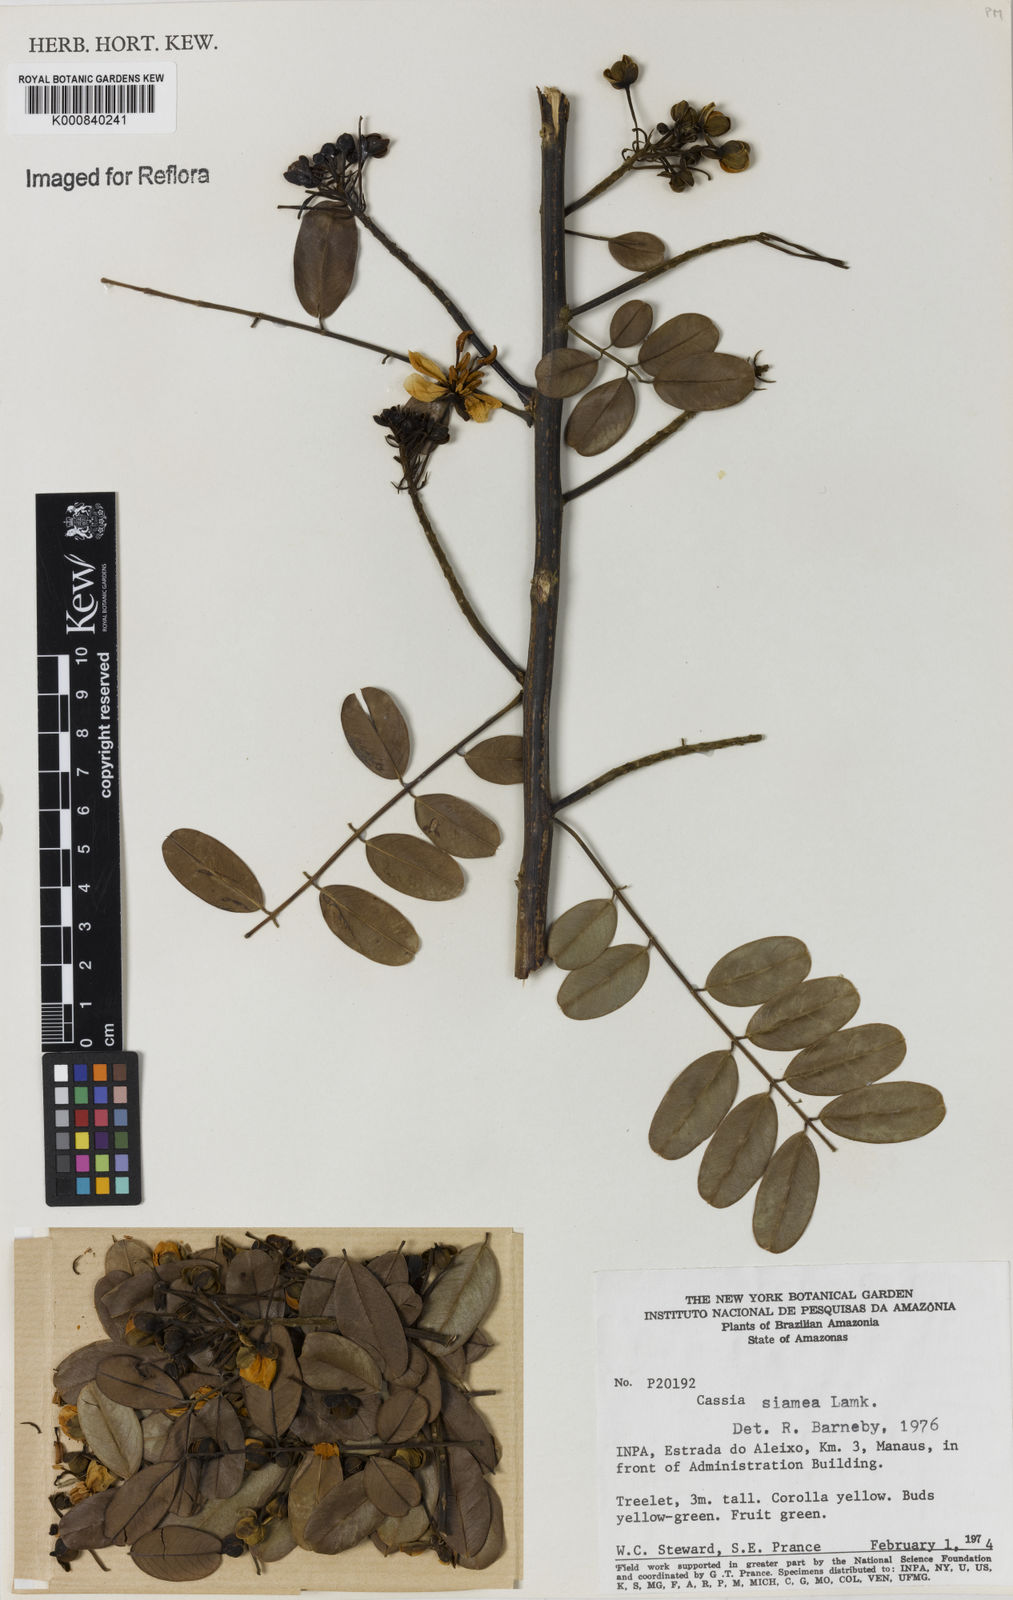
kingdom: Plantae
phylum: Tracheophyta
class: Magnoliopsida
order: Fabales
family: Fabaceae
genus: Senna
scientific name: Senna siamea
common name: Siamese cassia
